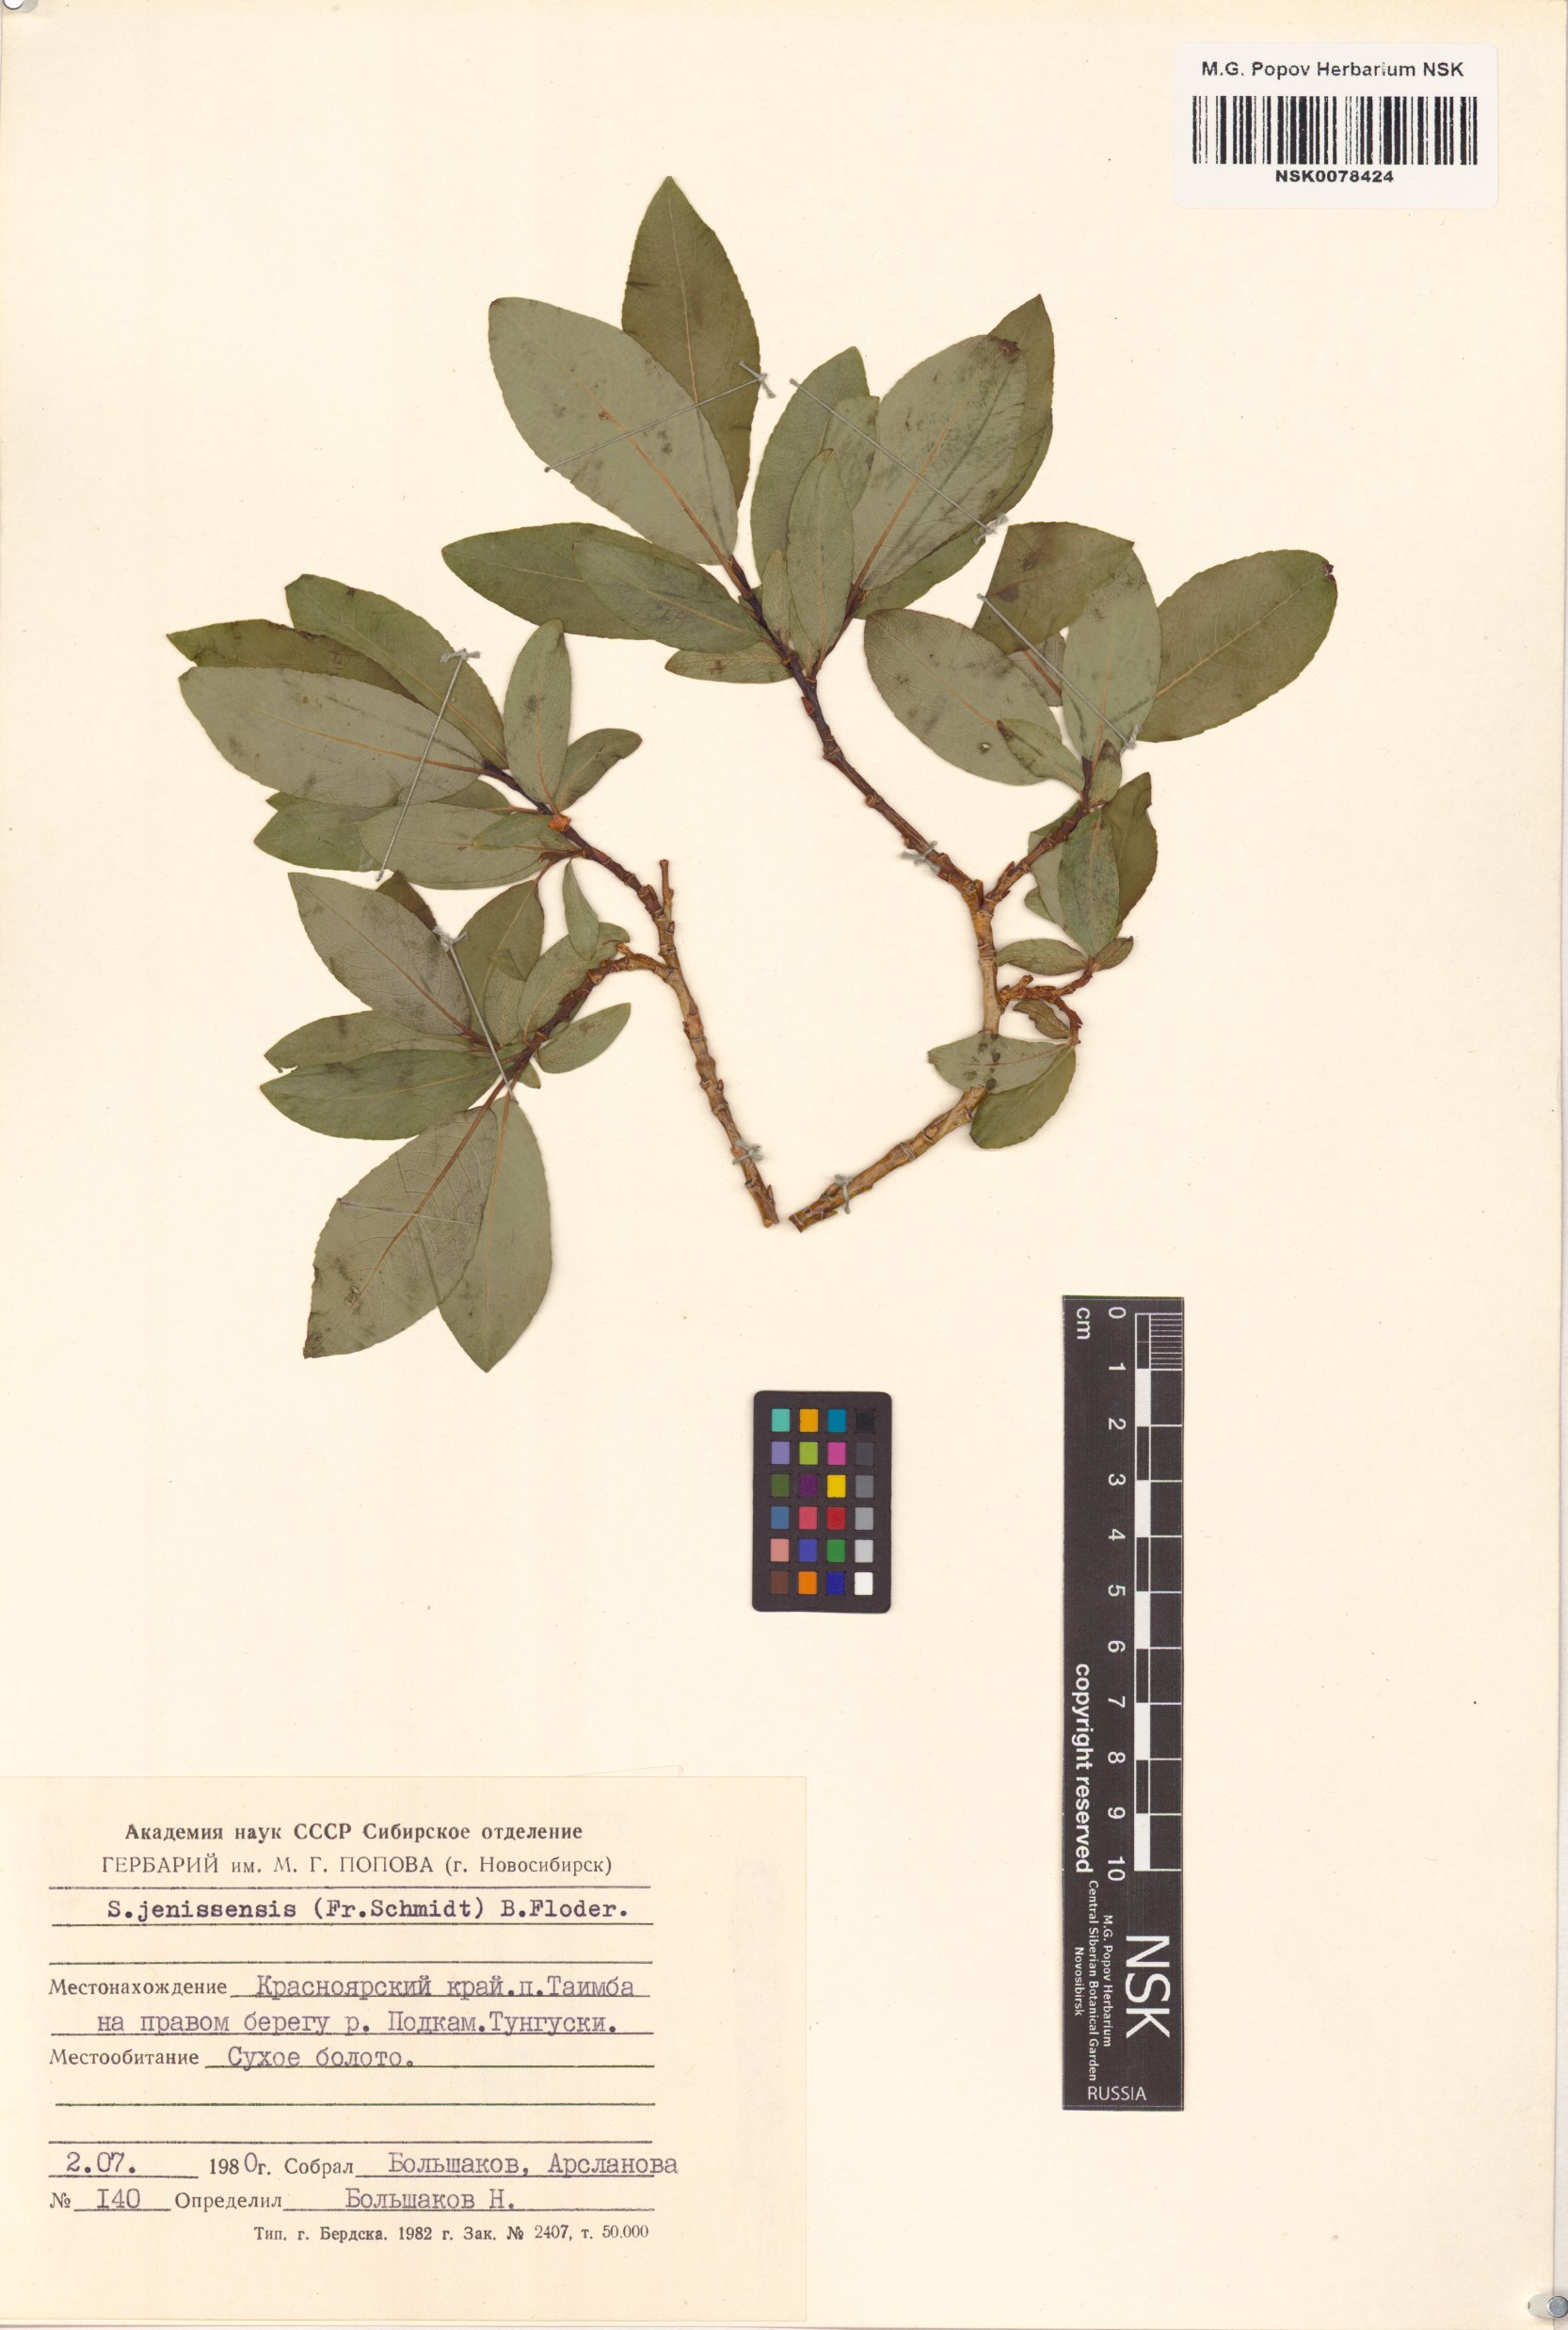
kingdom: Plantae
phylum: Tracheophyta
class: Magnoliopsida
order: Malpighiales
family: Salicaceae
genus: Salix
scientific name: Salix jenisseensis
